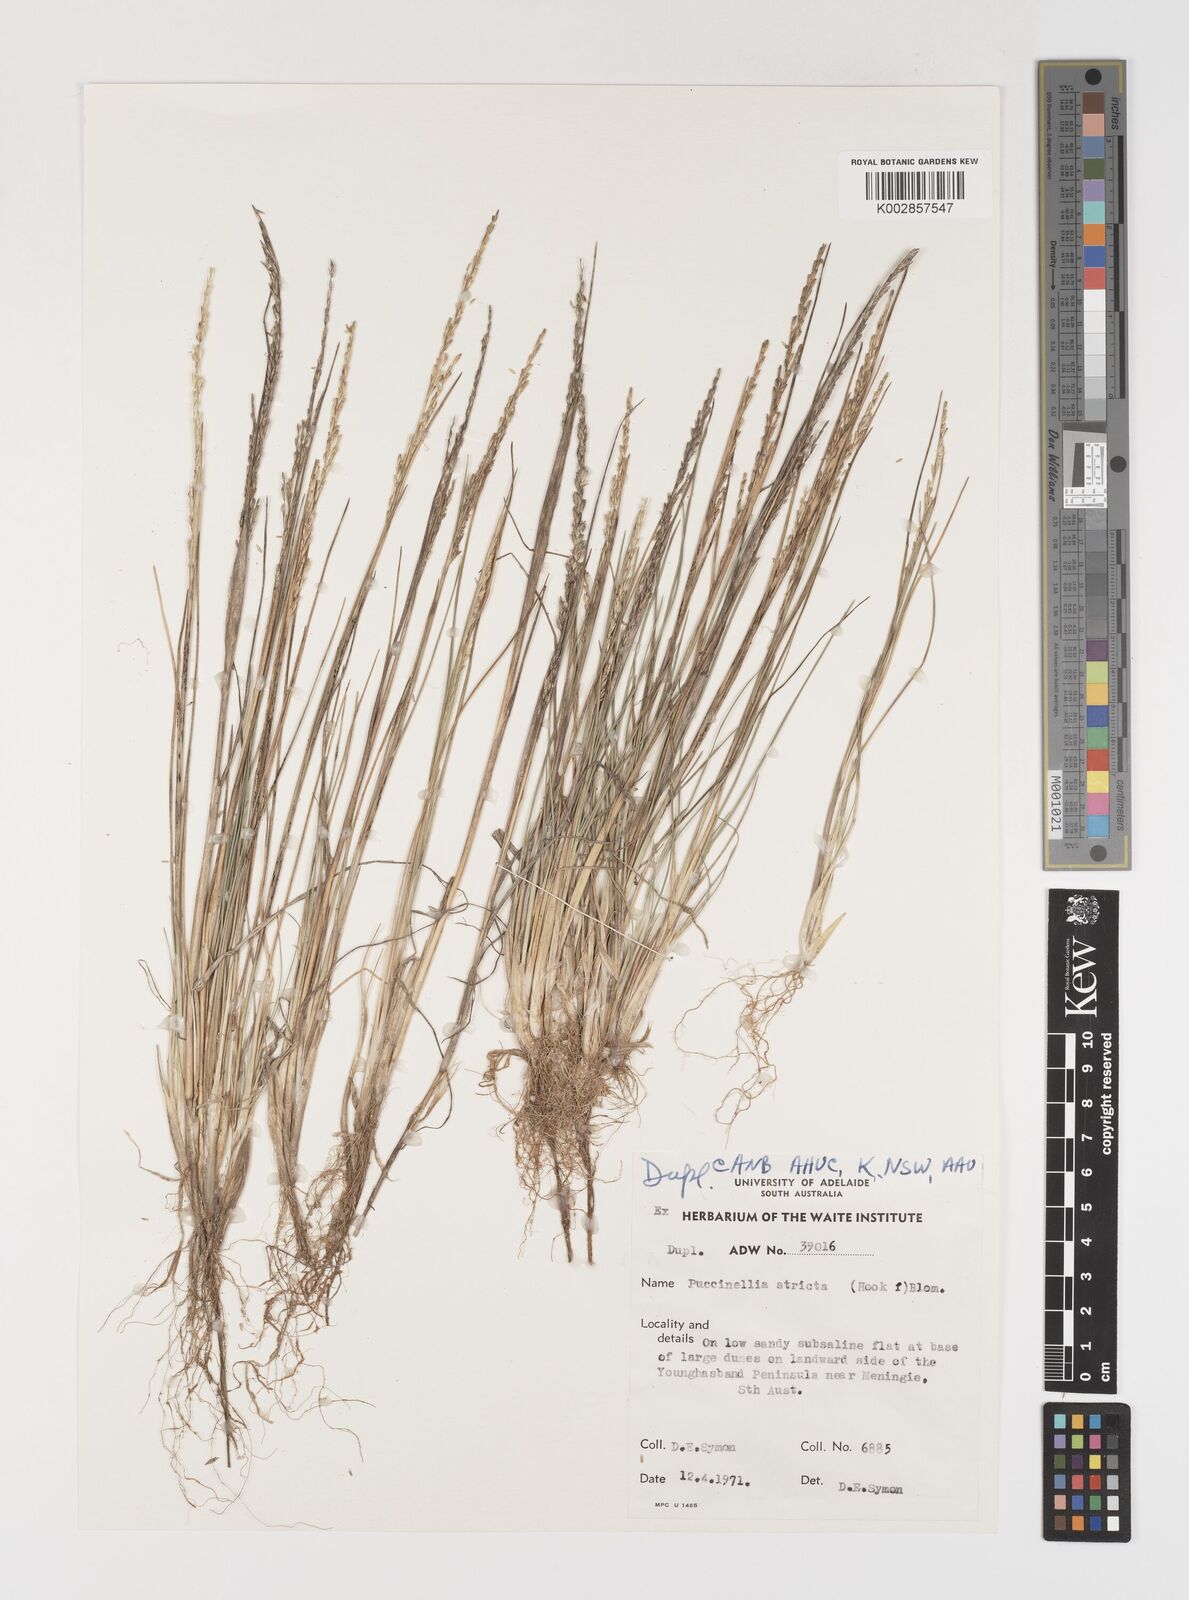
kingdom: Plantae
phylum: Tracheophyta
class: Liliopsida
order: Poales
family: Poaceae
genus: Puccinellia
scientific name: Puccinellia stricta
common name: Australian saltmarsh grass
